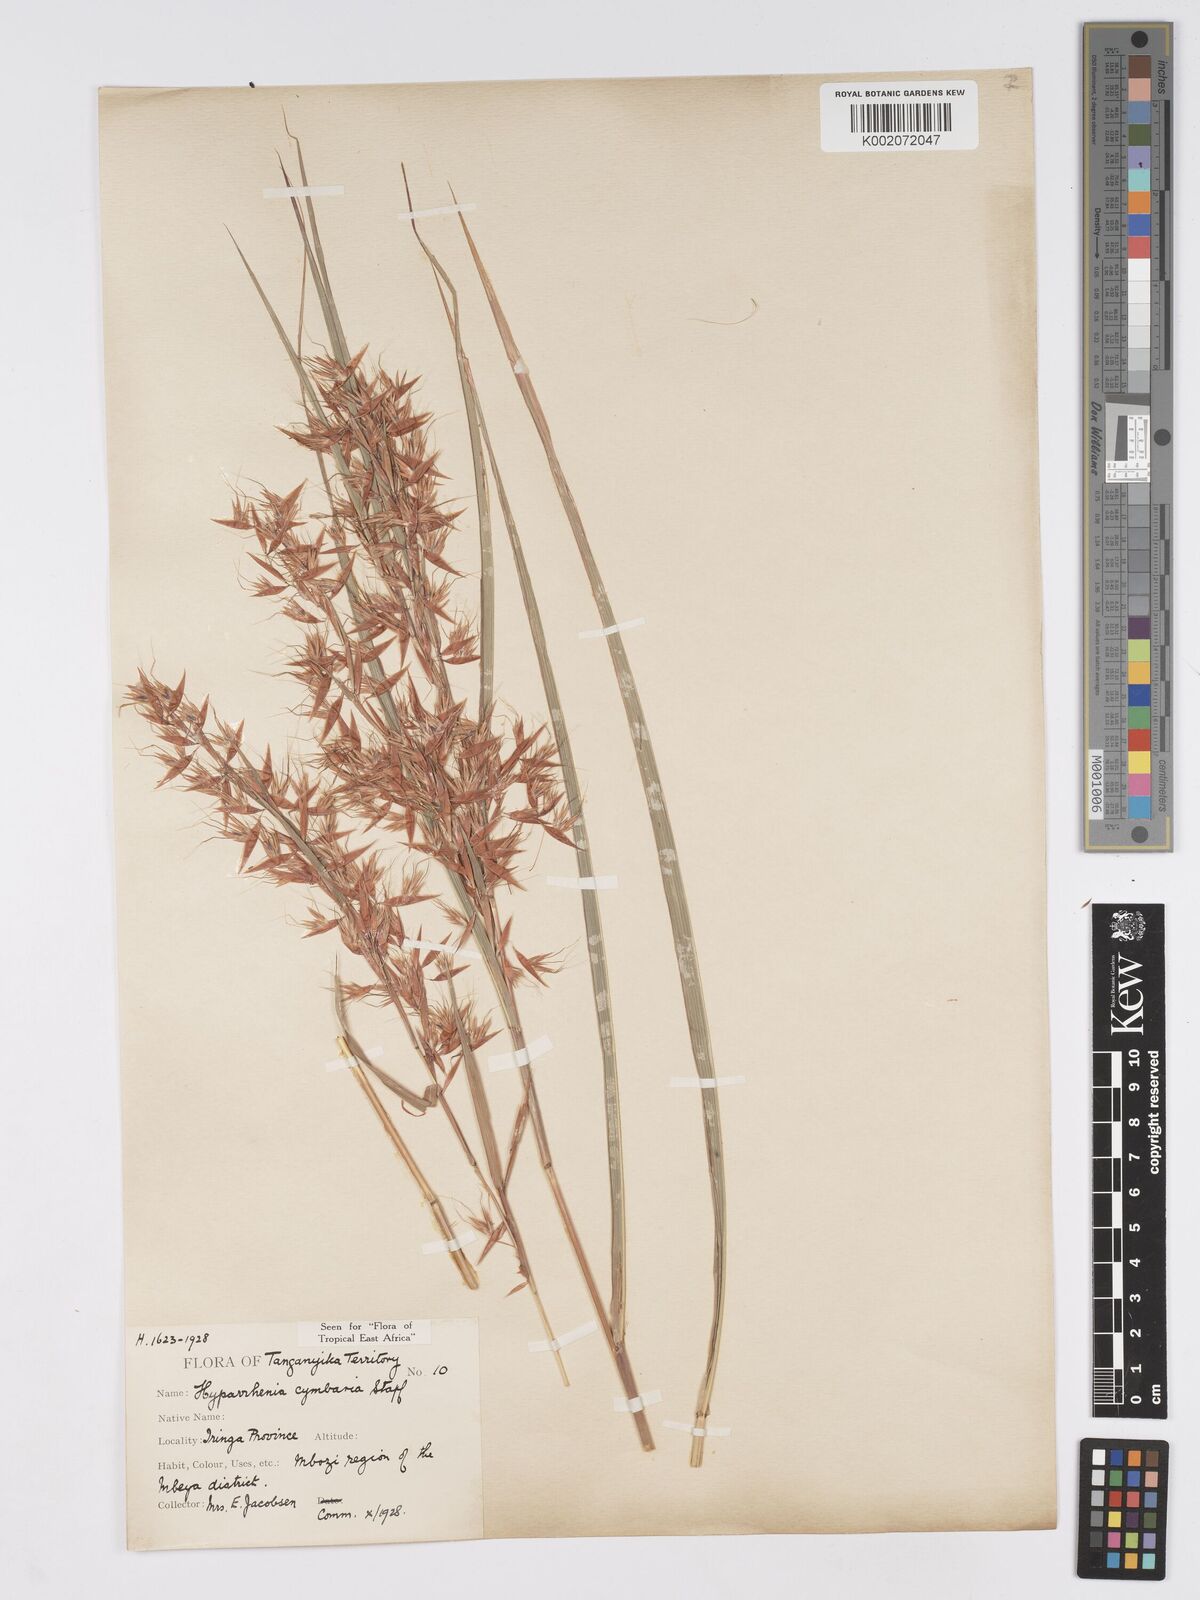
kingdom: Plantae
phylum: Tracheophyta
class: Liliopsida
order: Poales
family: Poaceae
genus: Hyparrhenia
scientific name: Hyparrhenia cymbaria
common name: Boat thatching grass
